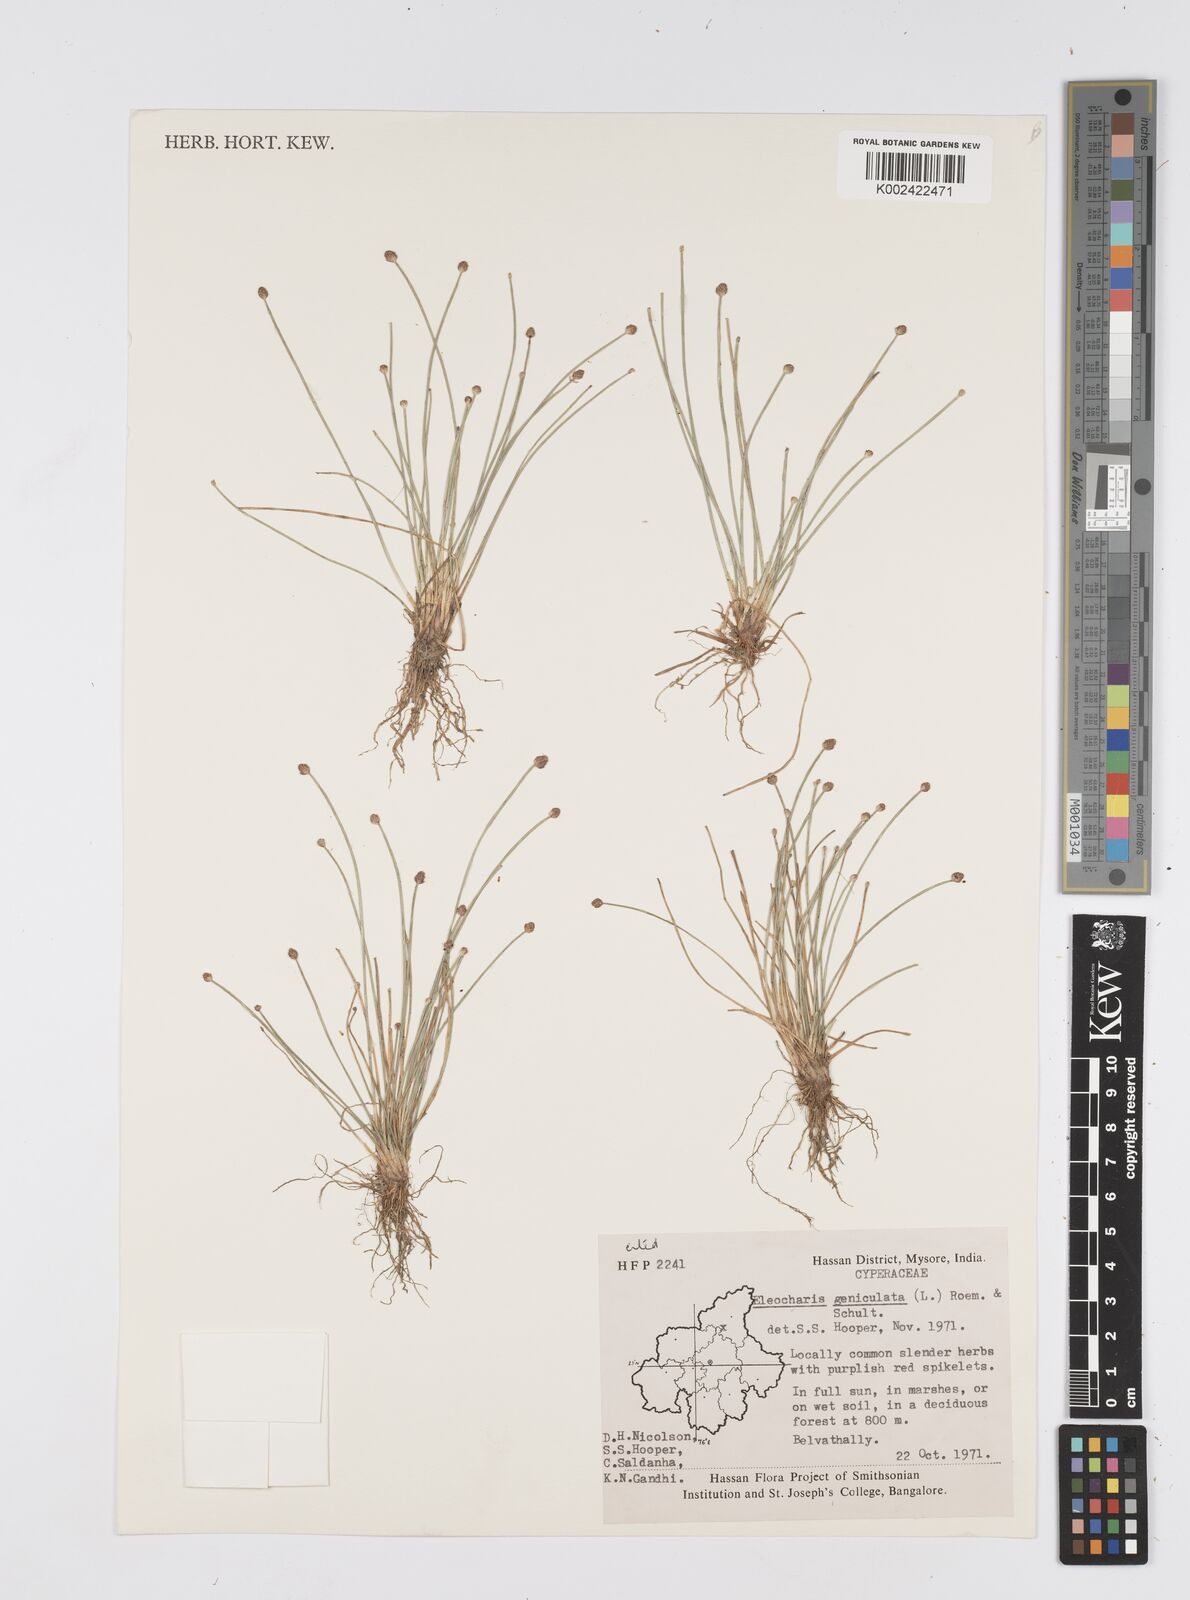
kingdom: Plantae
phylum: Tracheophyta
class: Liliopsida
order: Poales
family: Cyperaceae
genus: Eleocharis
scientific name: Eleocharis geniculata
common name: Canada spikesedge
